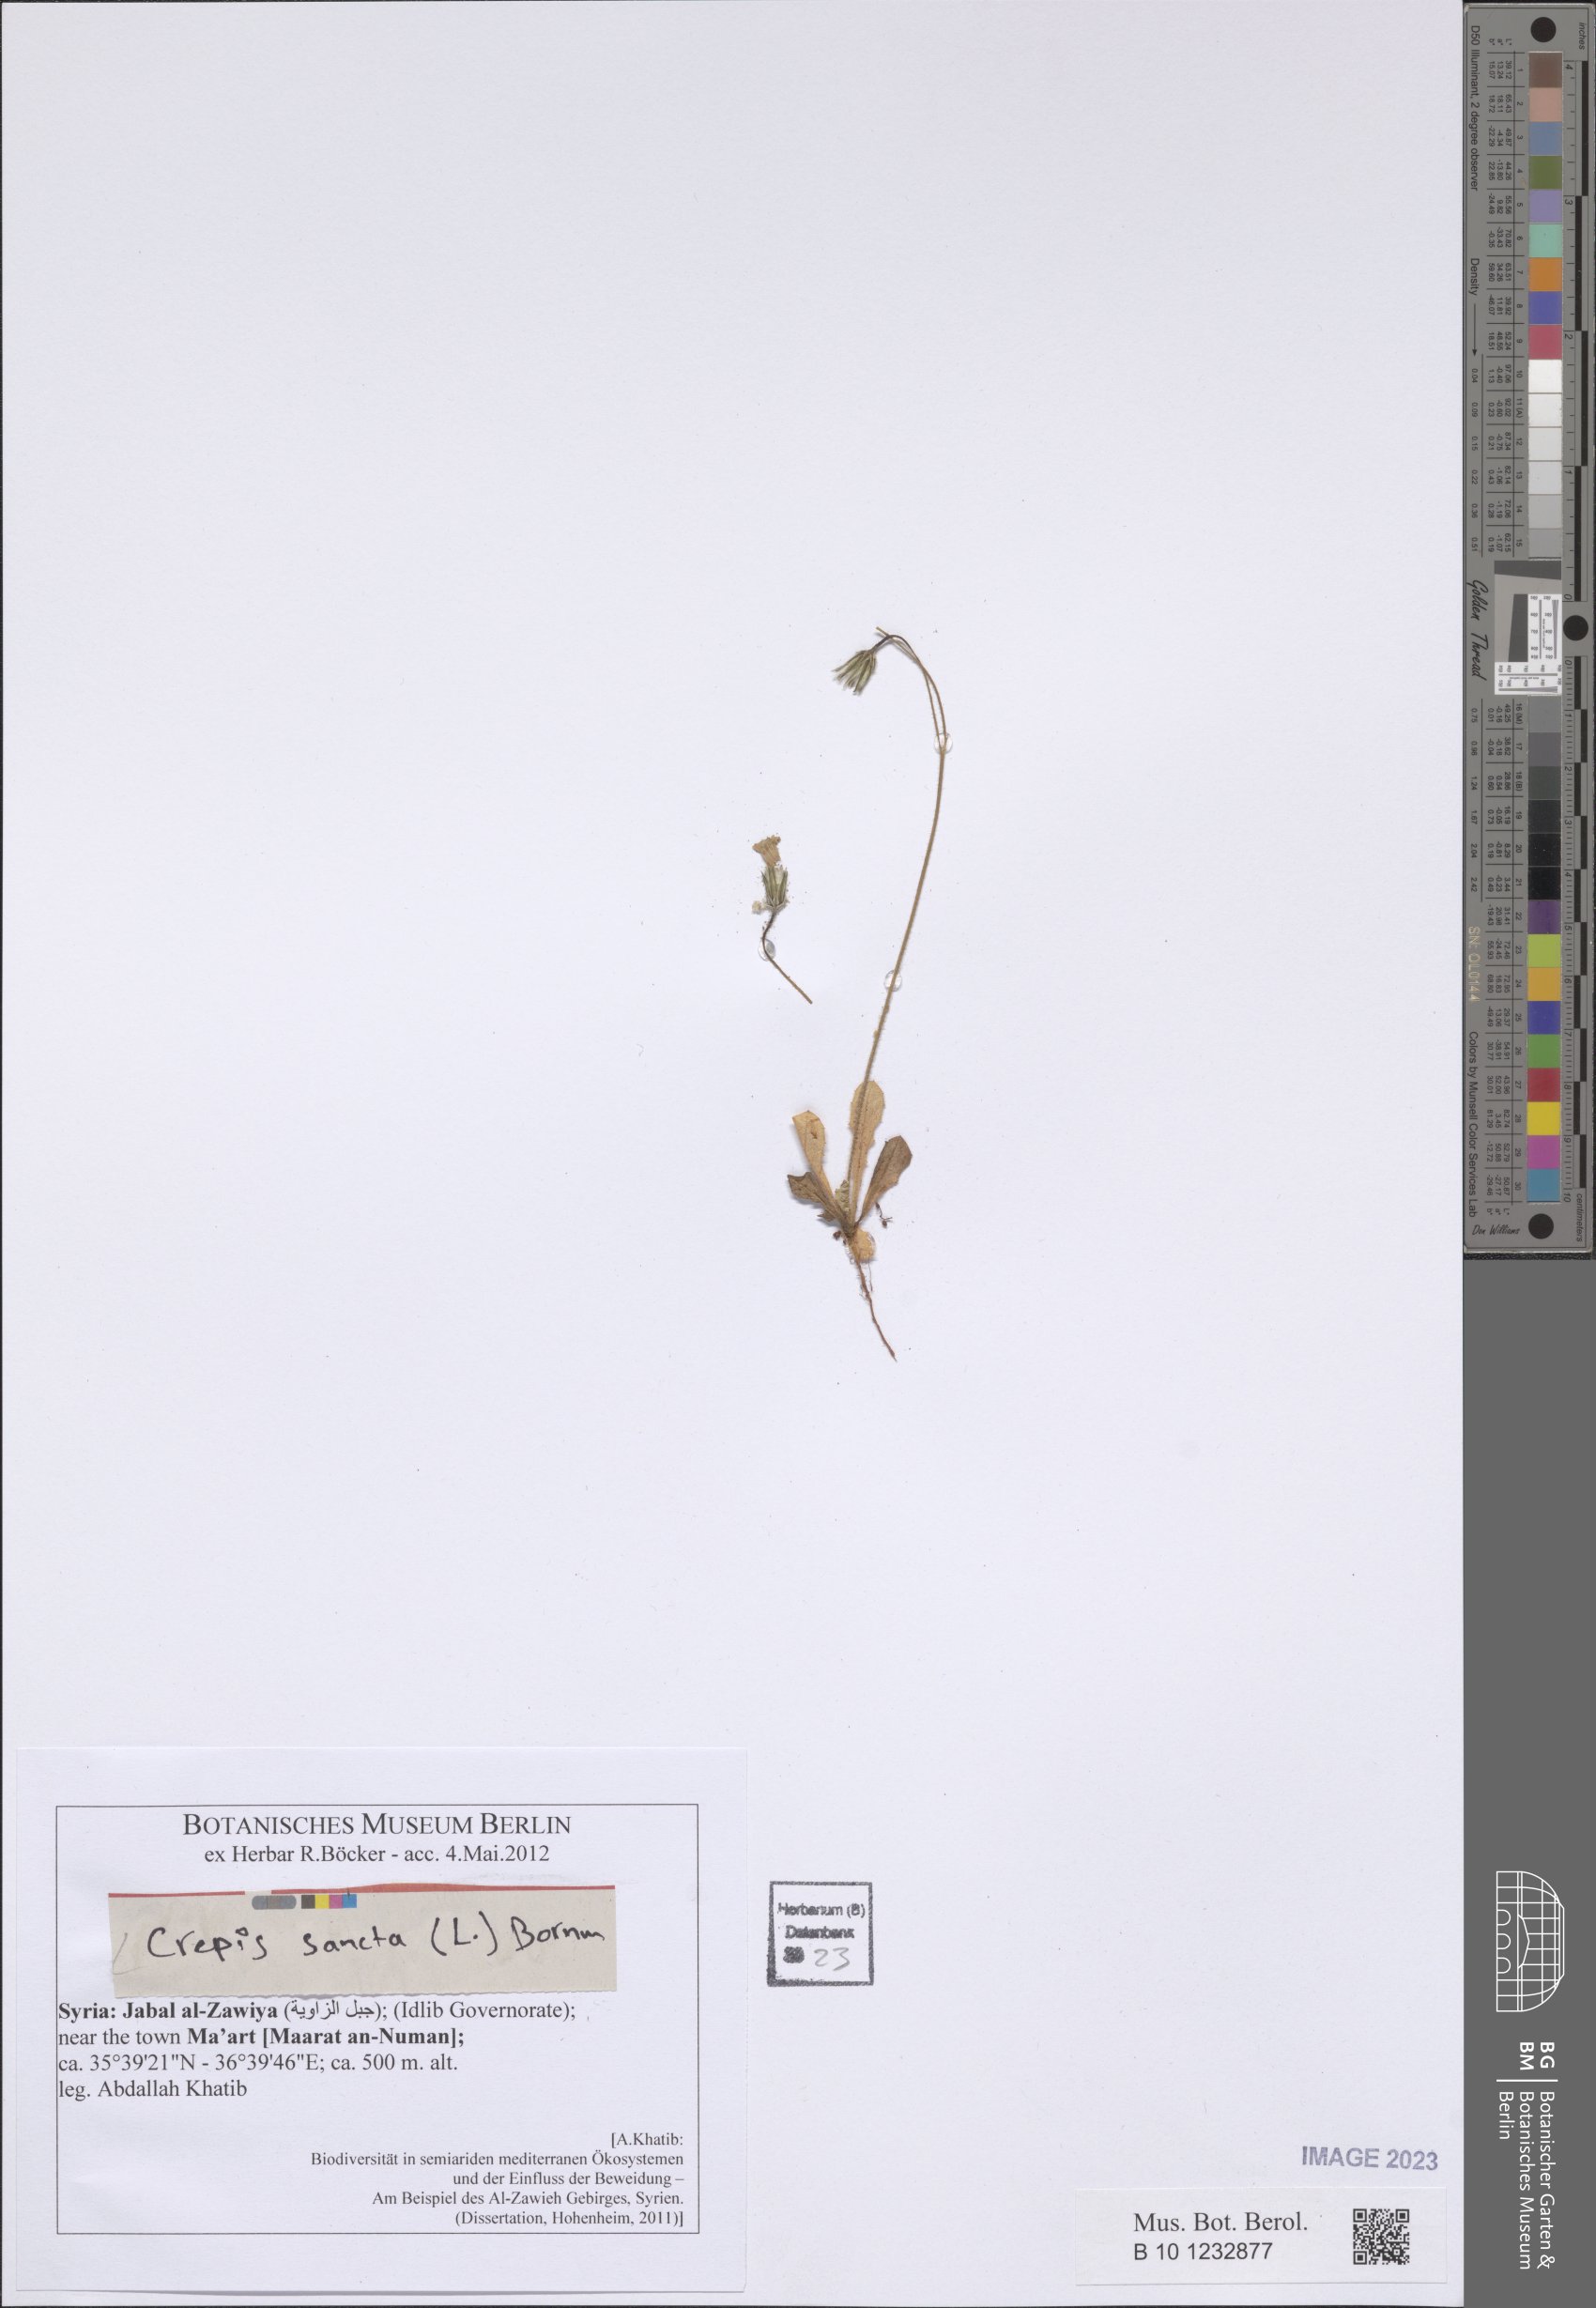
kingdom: Plantae
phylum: Tracheophyta
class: Magnoliopsida
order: Asterales
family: Asteraceae
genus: Crepis
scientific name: Crepis sancta
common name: Hawk's-beard
